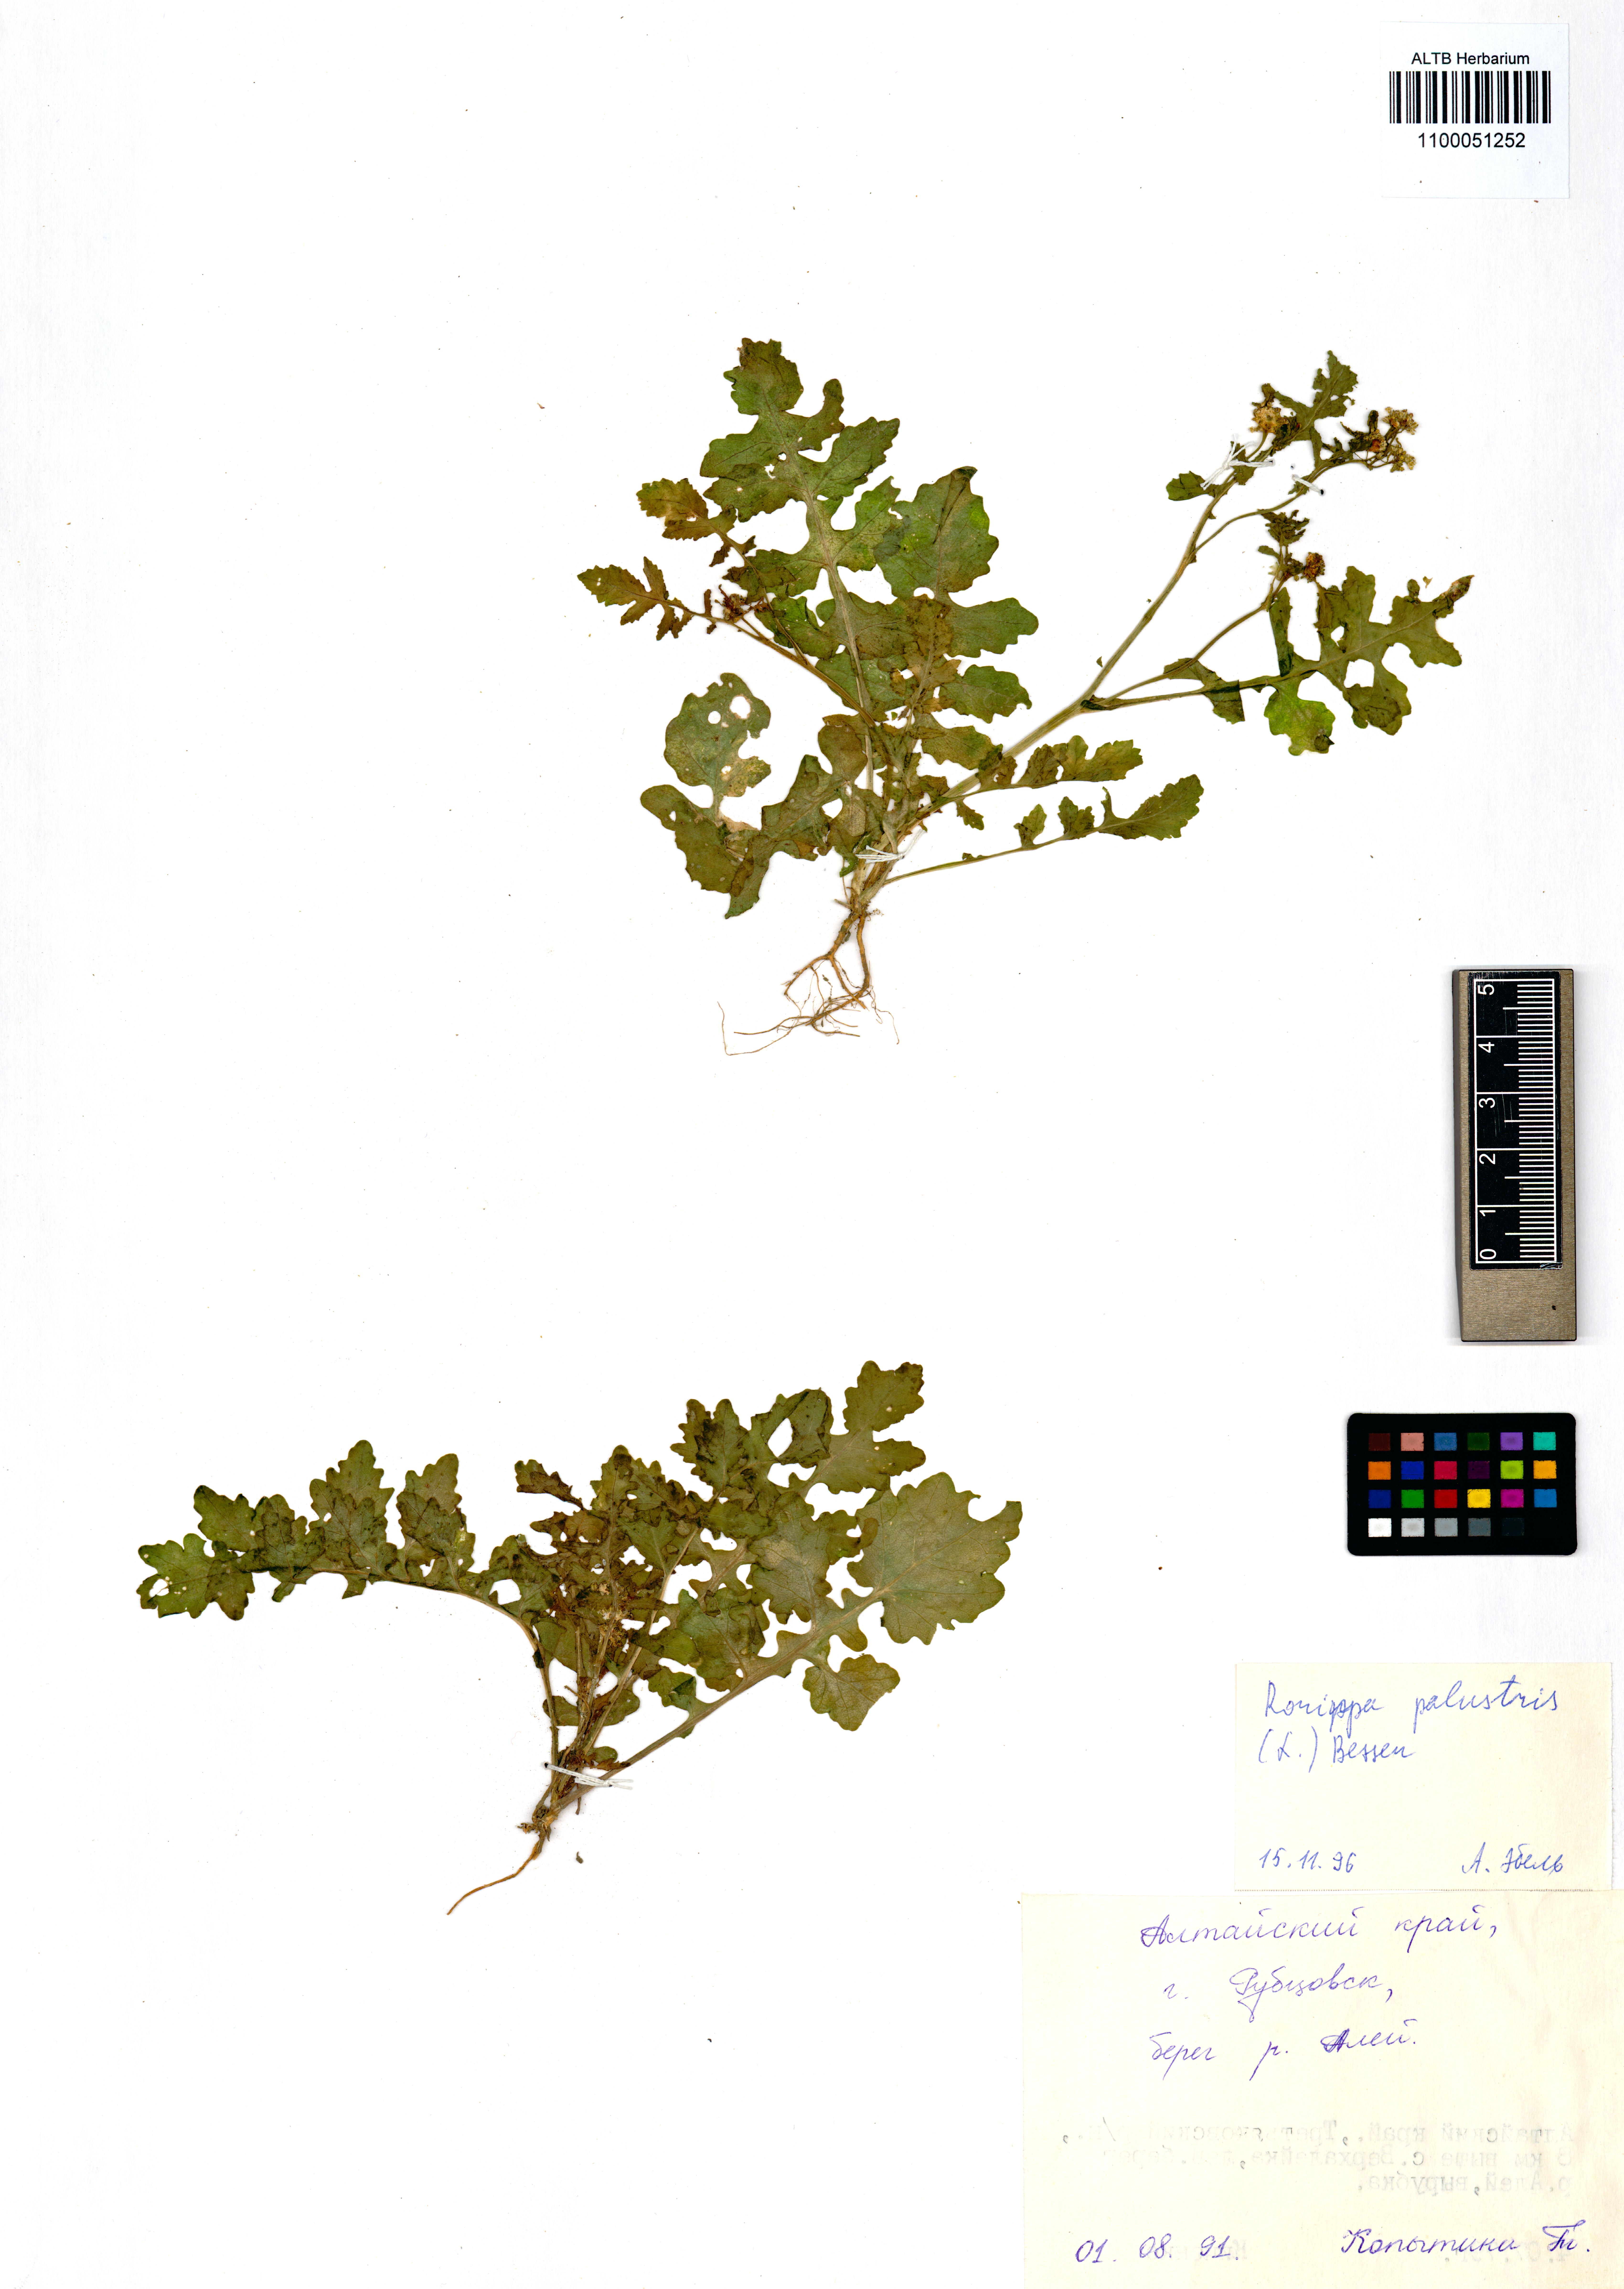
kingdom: Plantae
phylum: Tracheophyta
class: Magnoliopsida
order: Brassicales
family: Brassicaceae
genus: Rorippa
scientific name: Rorippa palustris
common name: Marsh yellow-cress
